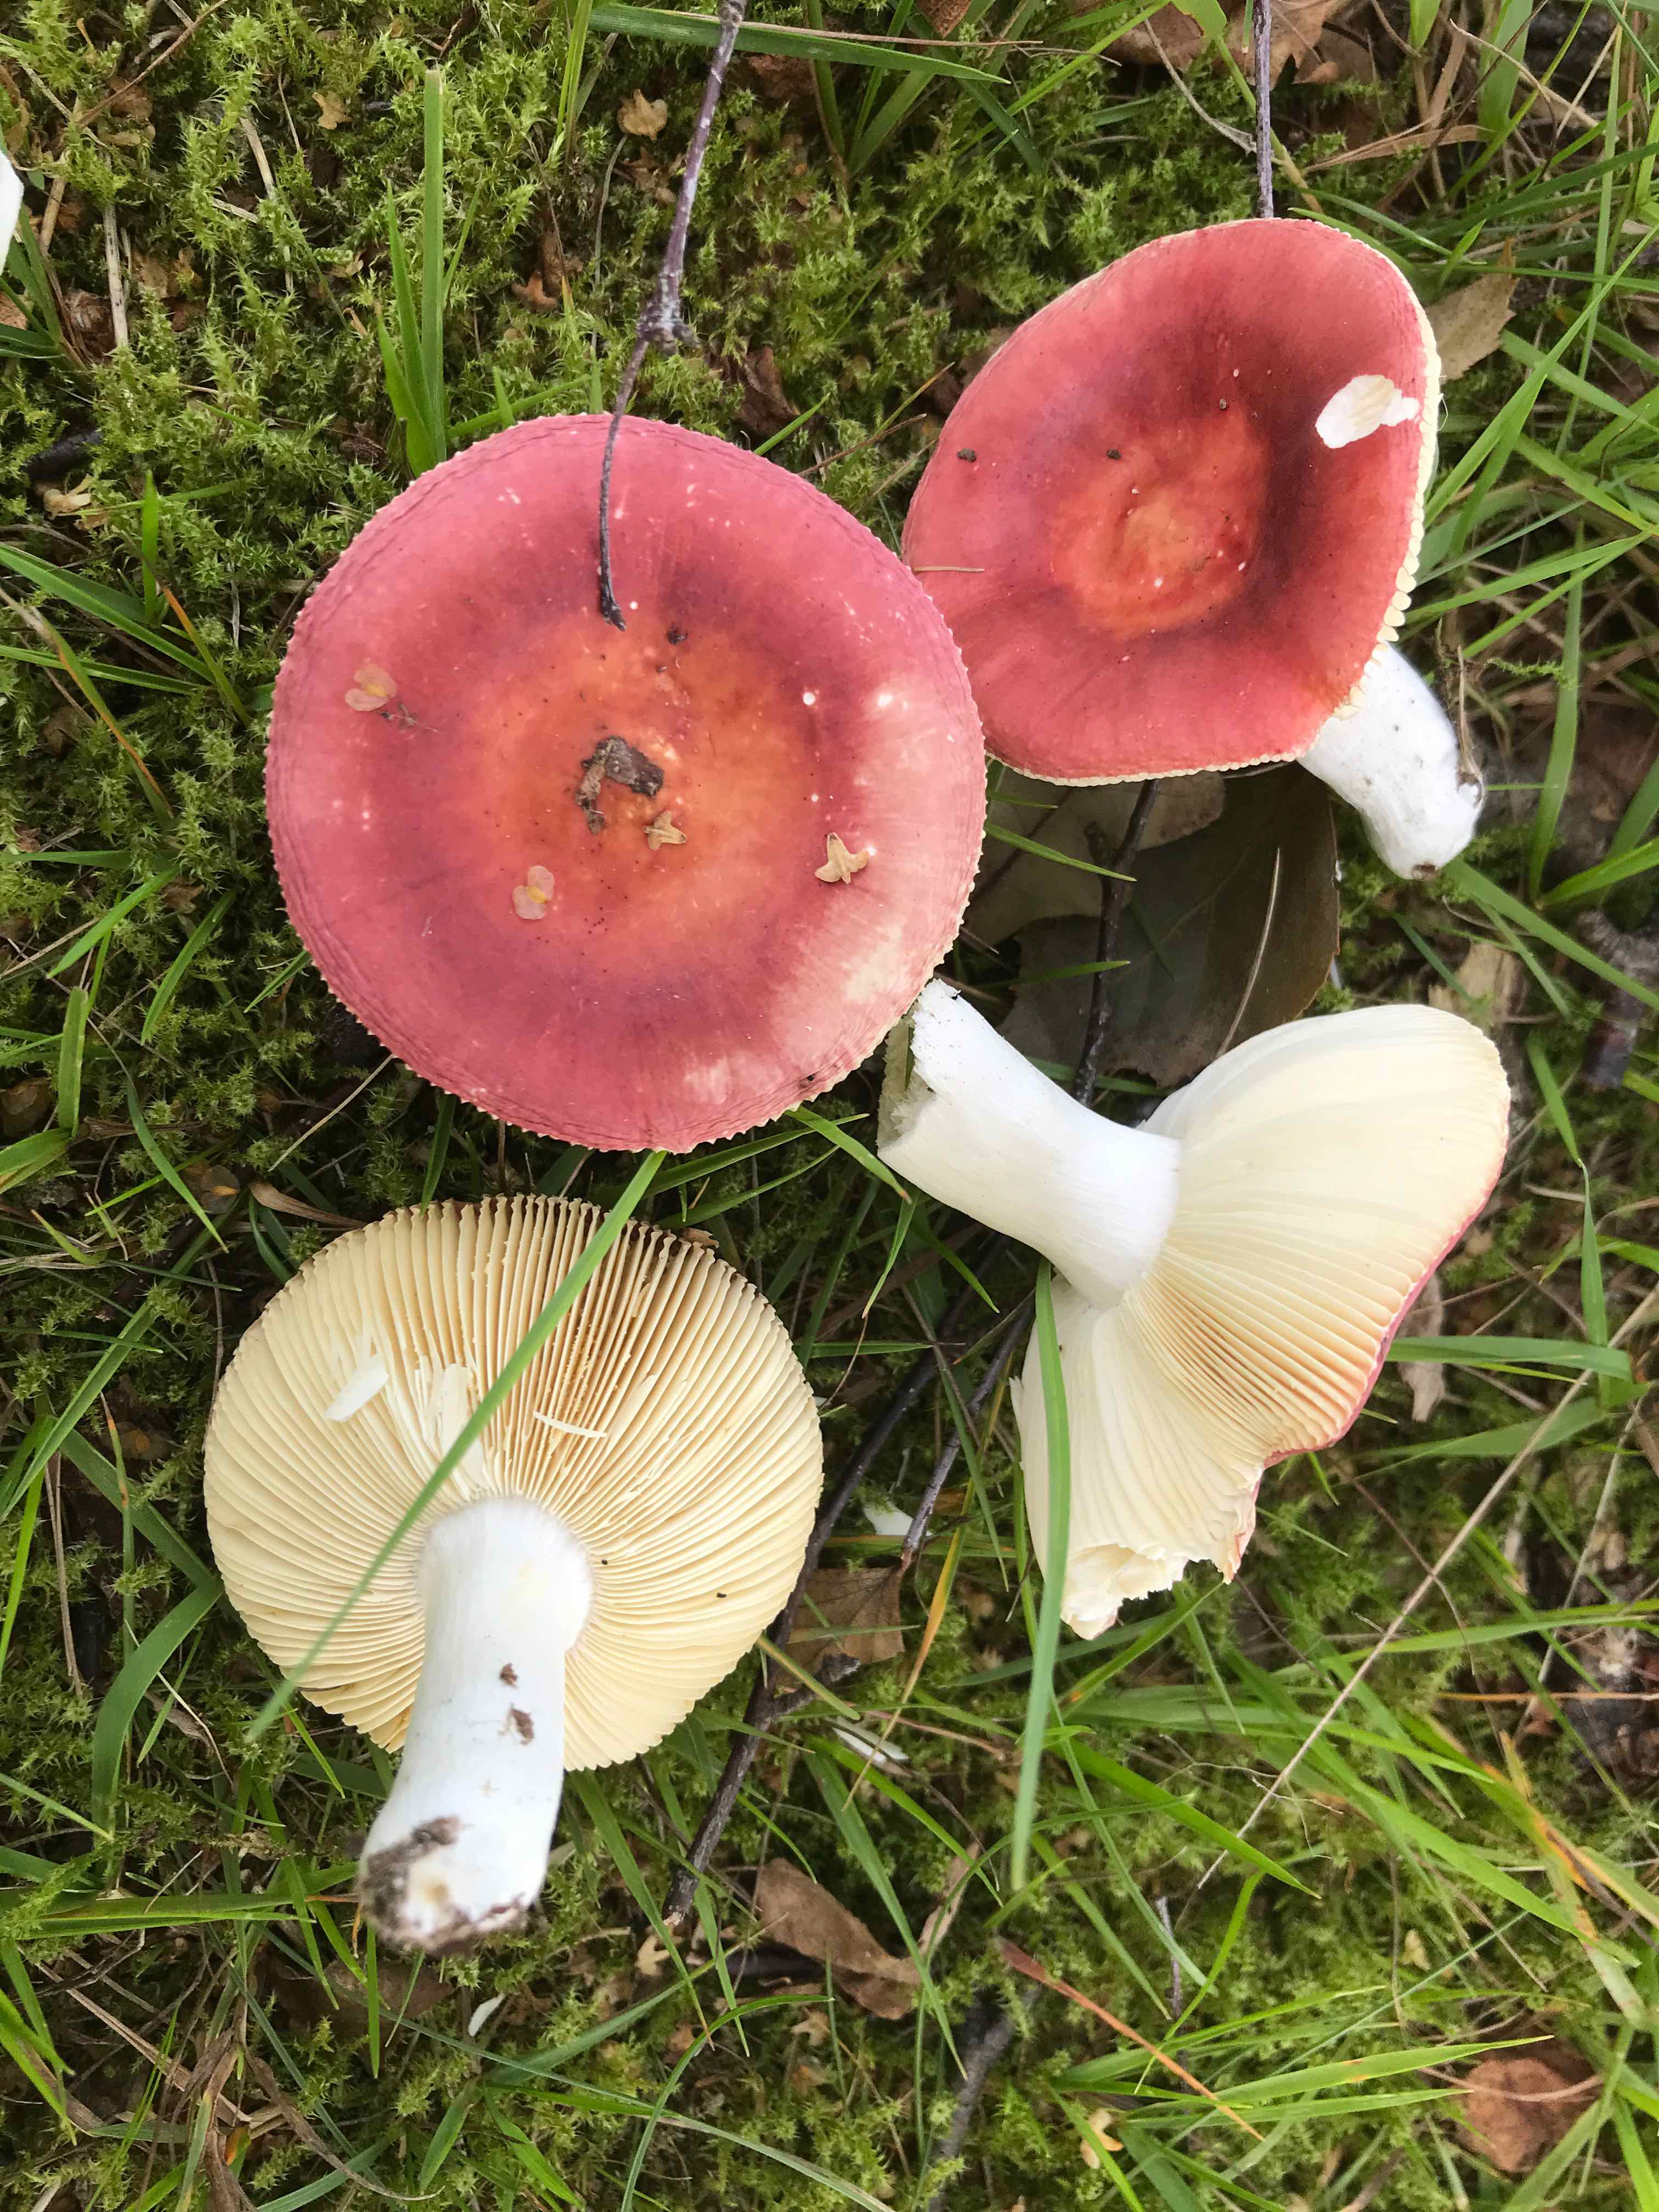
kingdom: Fungi
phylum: Basidiomycota
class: Agaricomycetes
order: Russulales
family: Russulaceae
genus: Russula
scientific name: Russula velenovskyi
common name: orangerød skørhat
